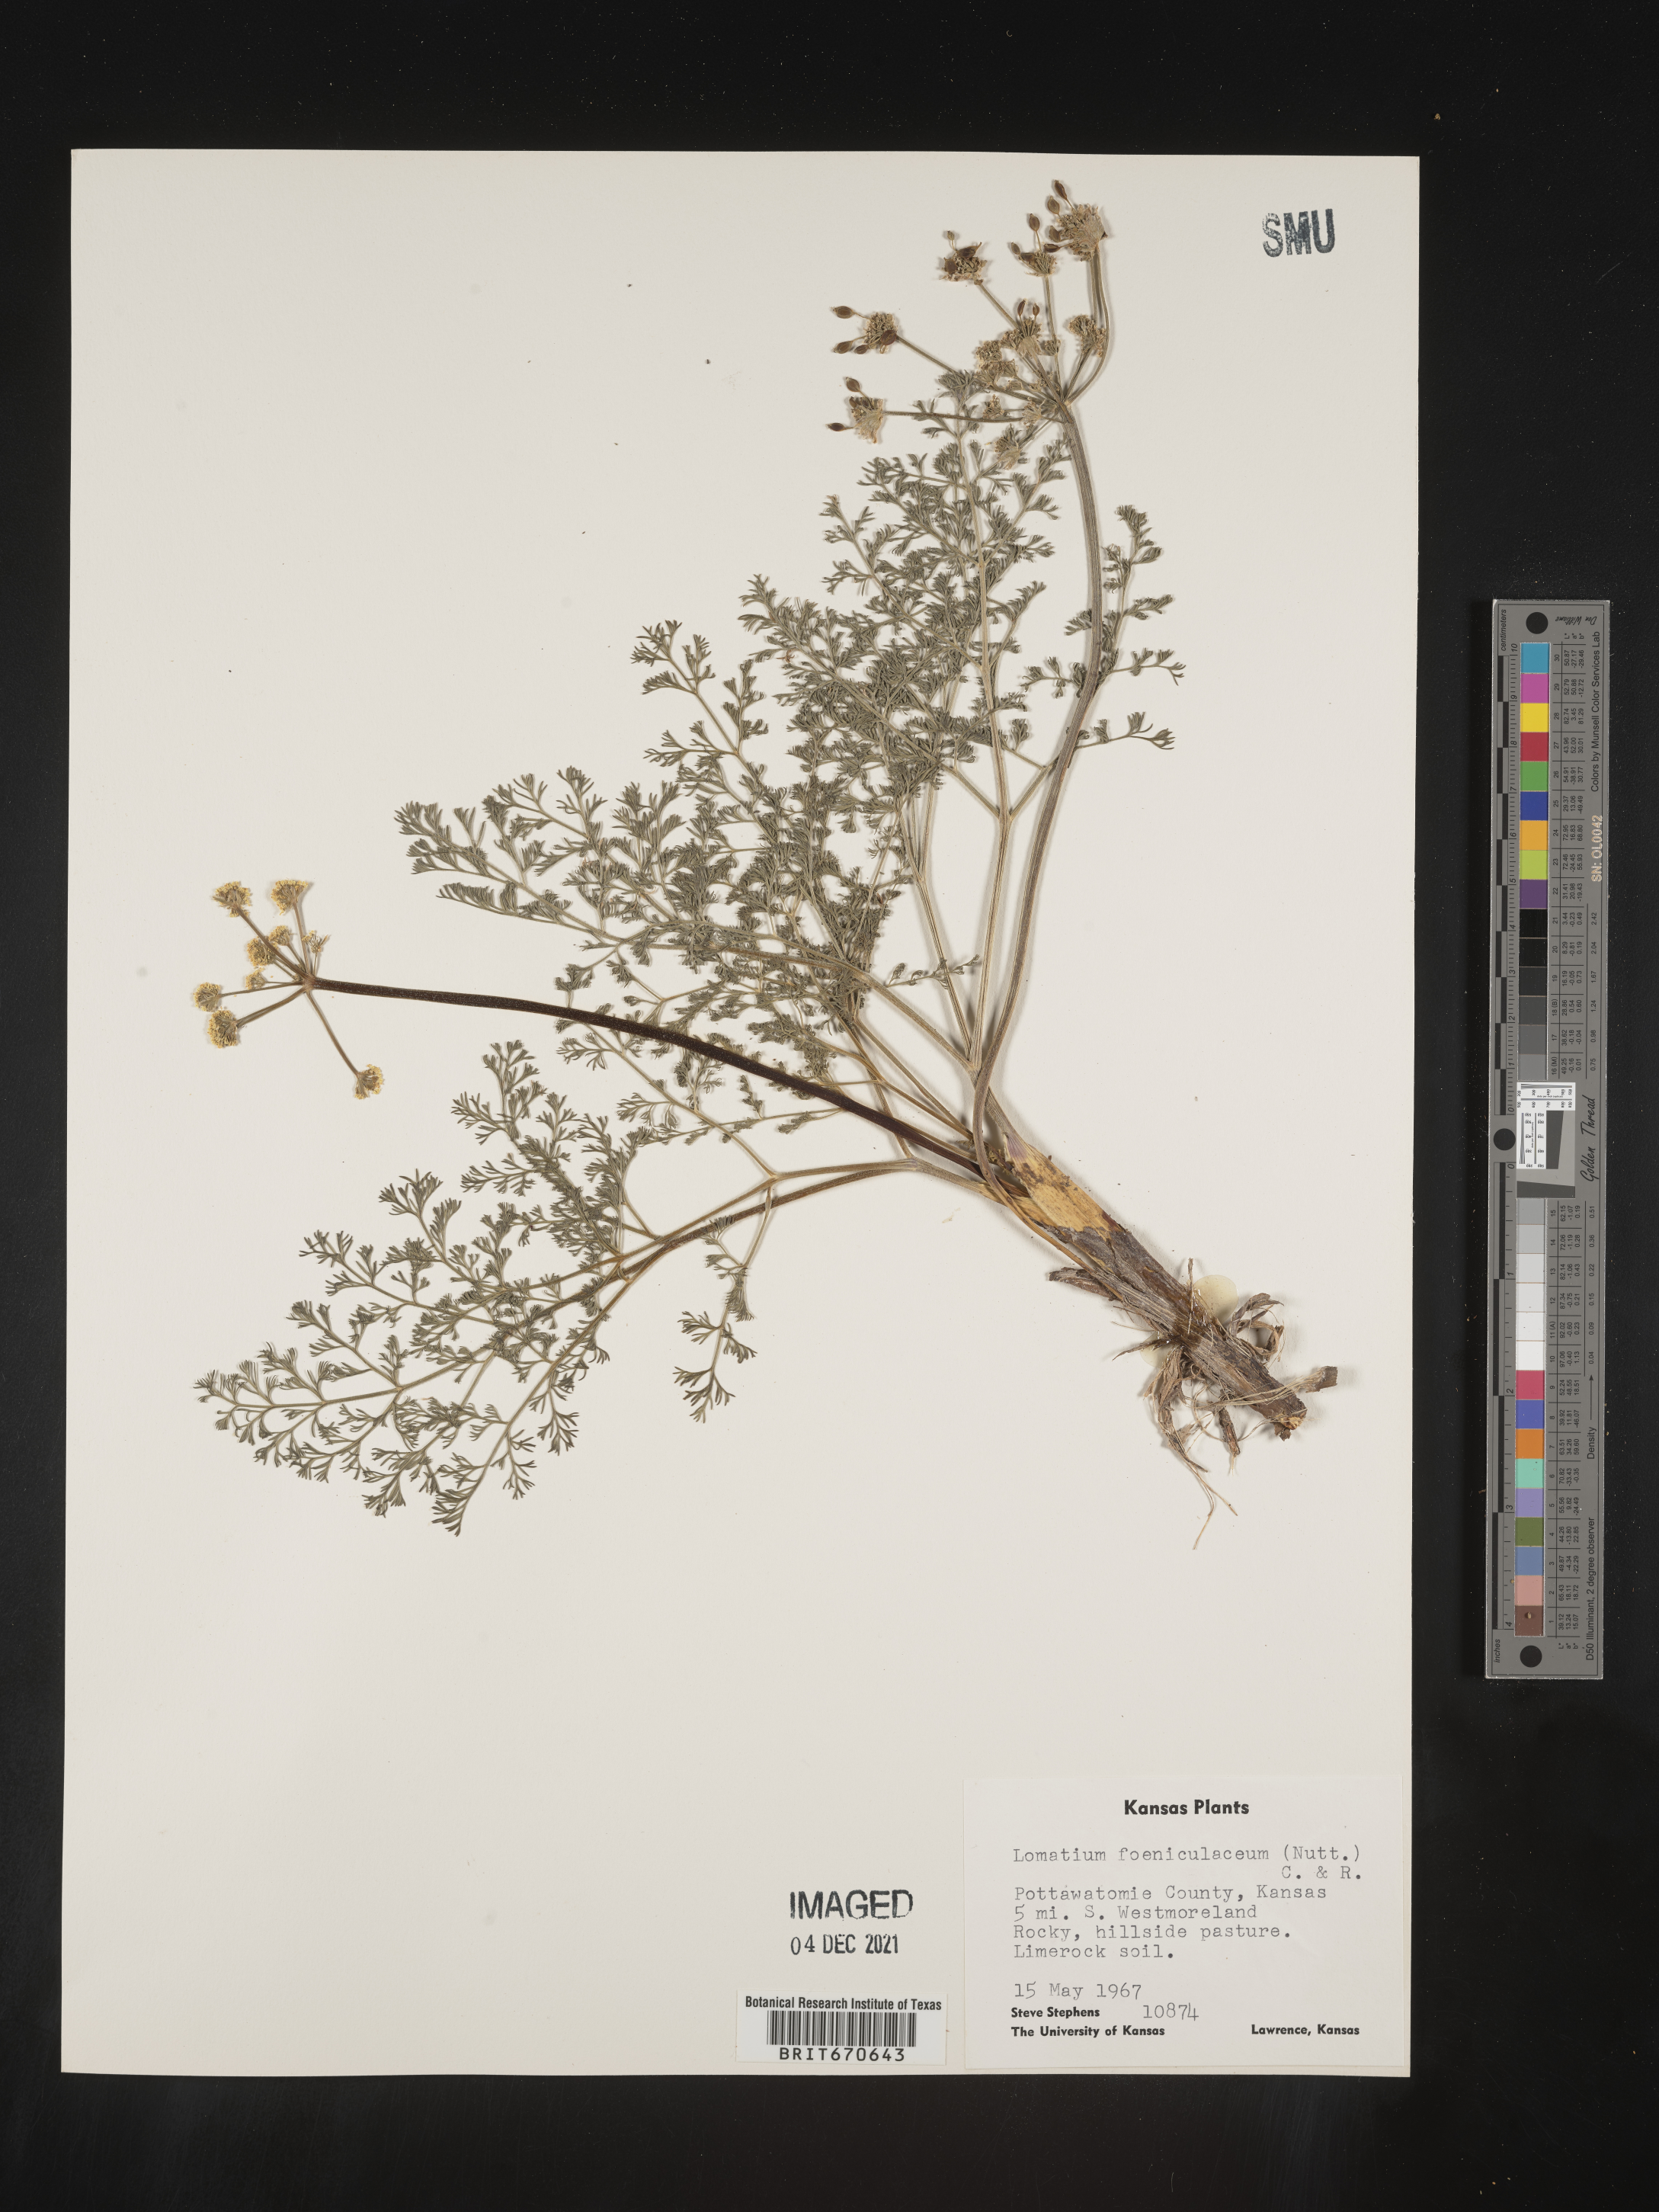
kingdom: Plantae
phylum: Tracheophyta
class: Magnoliopsida
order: Apiales
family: Apiaceae
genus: Lomatium
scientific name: Lomatium foeniculaceum
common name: Desert-parsley
